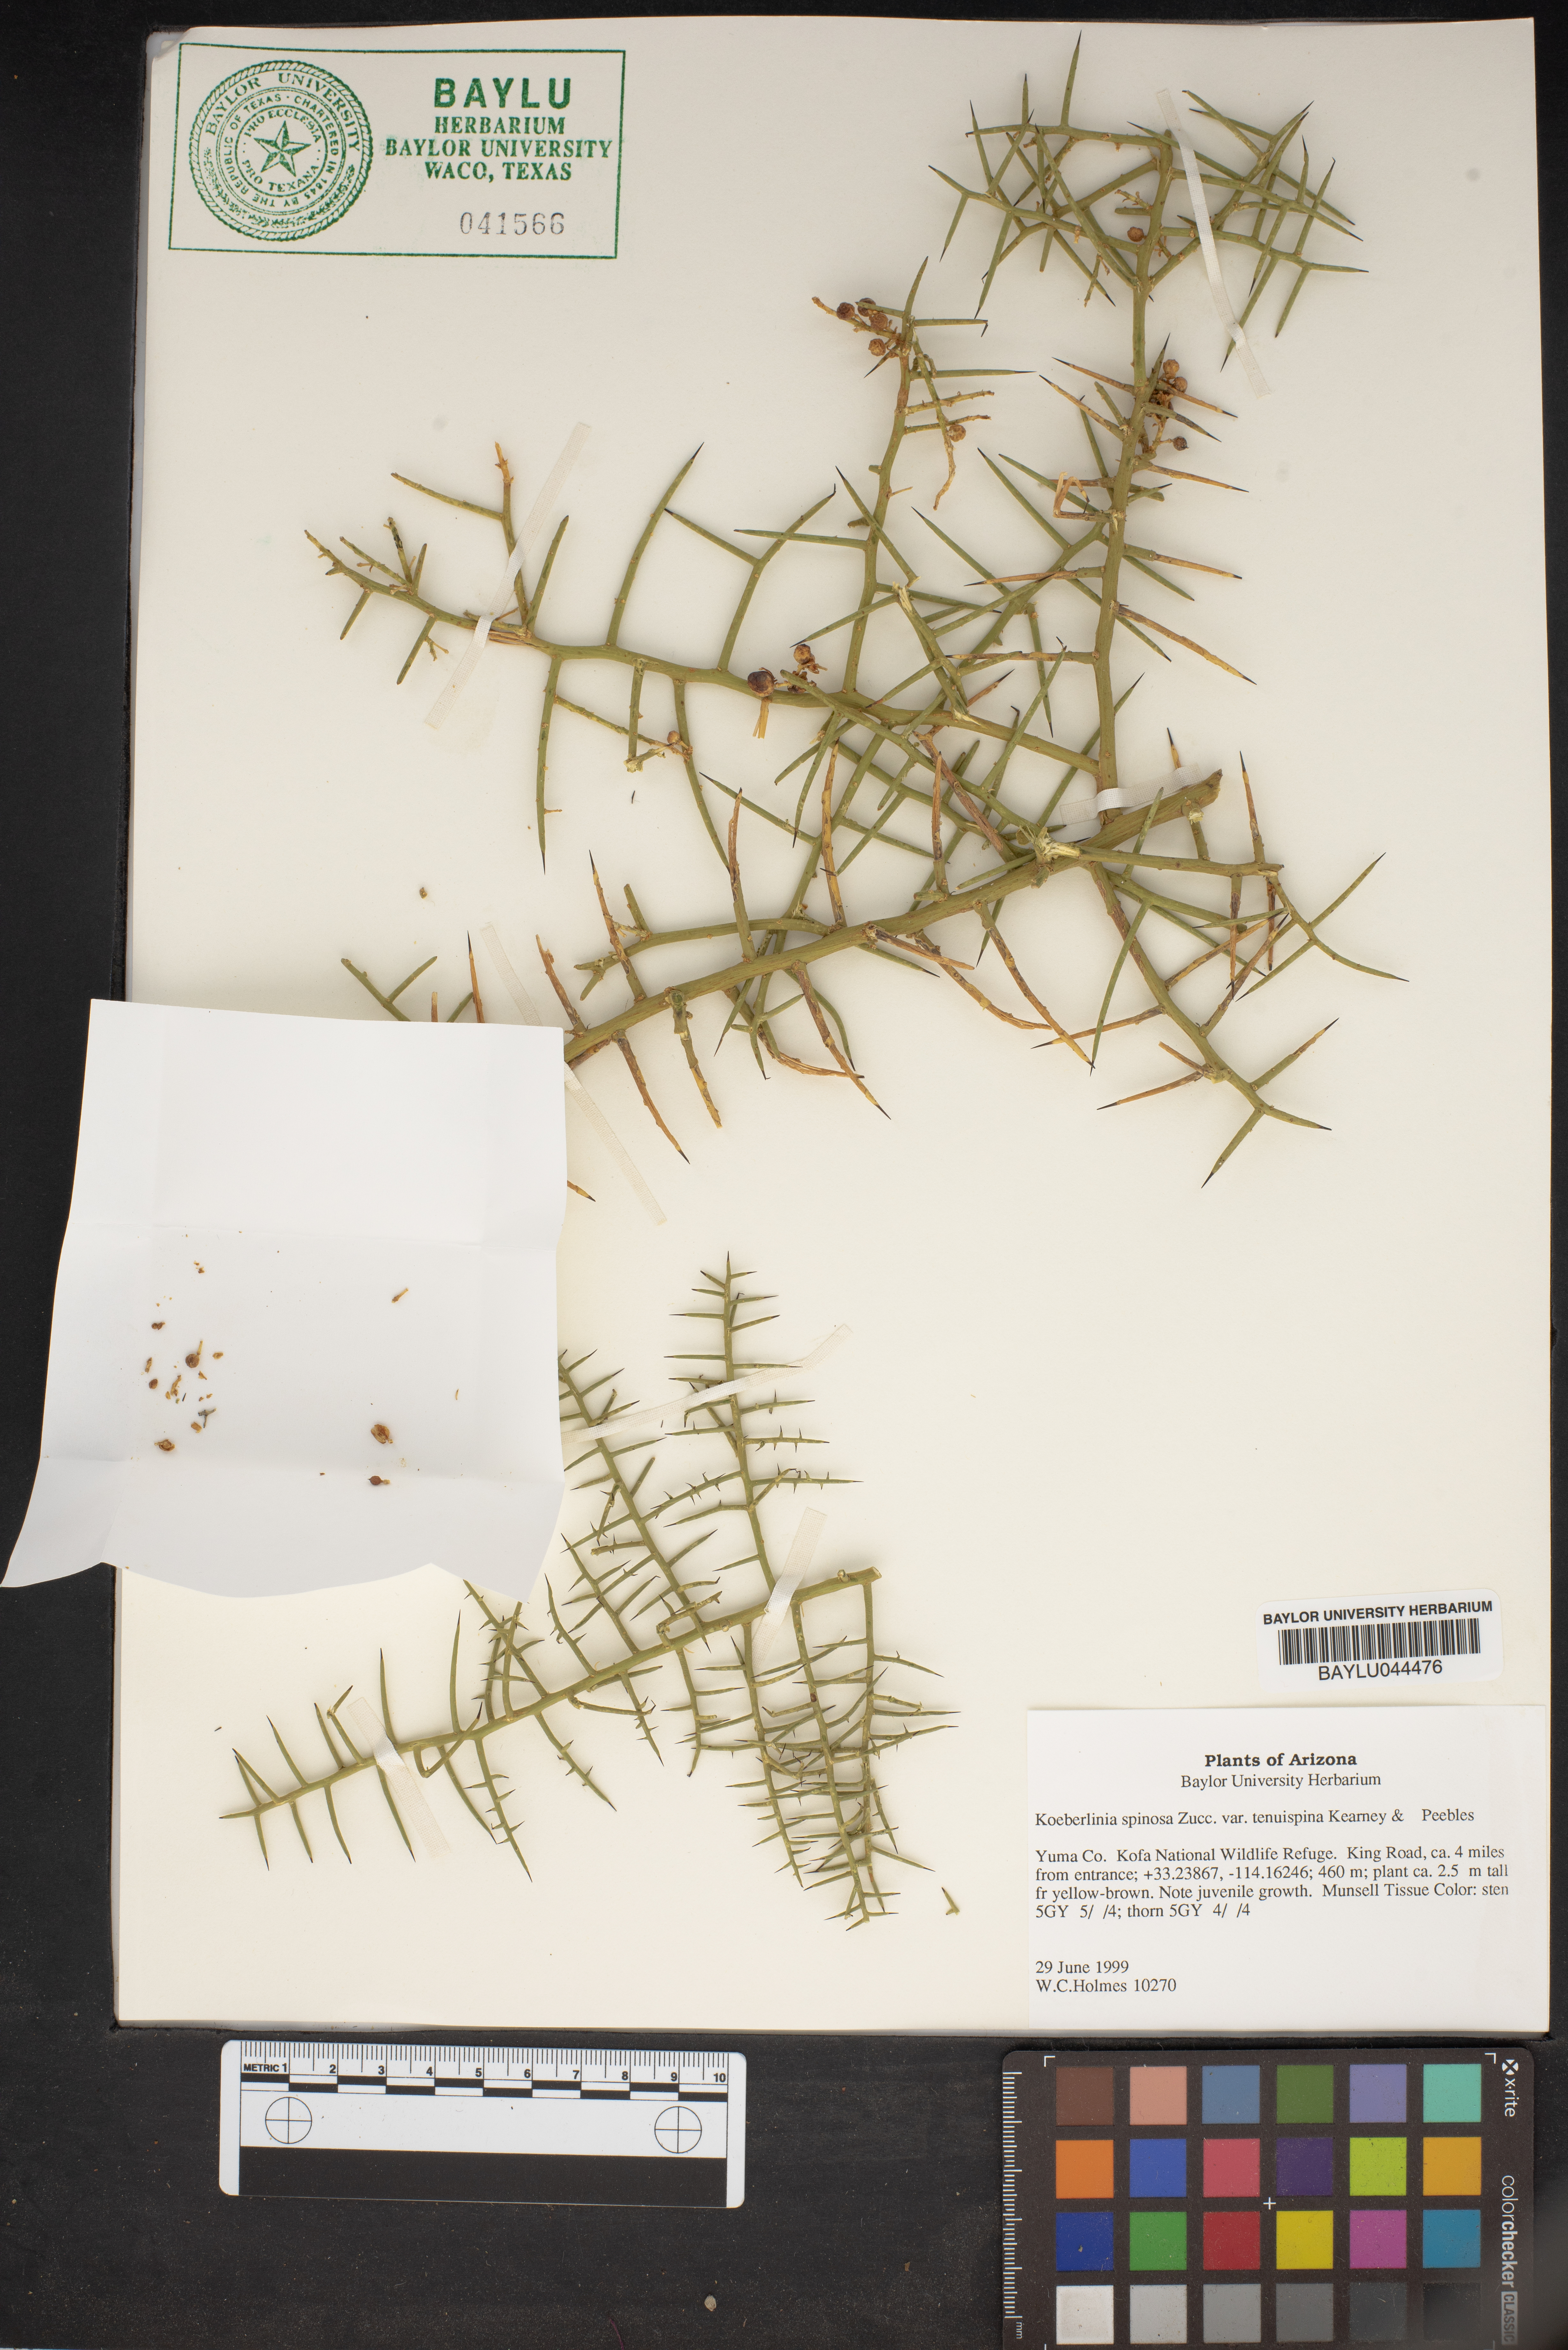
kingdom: Plantae
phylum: Tracheophyta
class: Magnoliopsida
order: Brassicales
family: Koeberliniaceae
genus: Koeberlinia
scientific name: Koeberlinia spinosa
